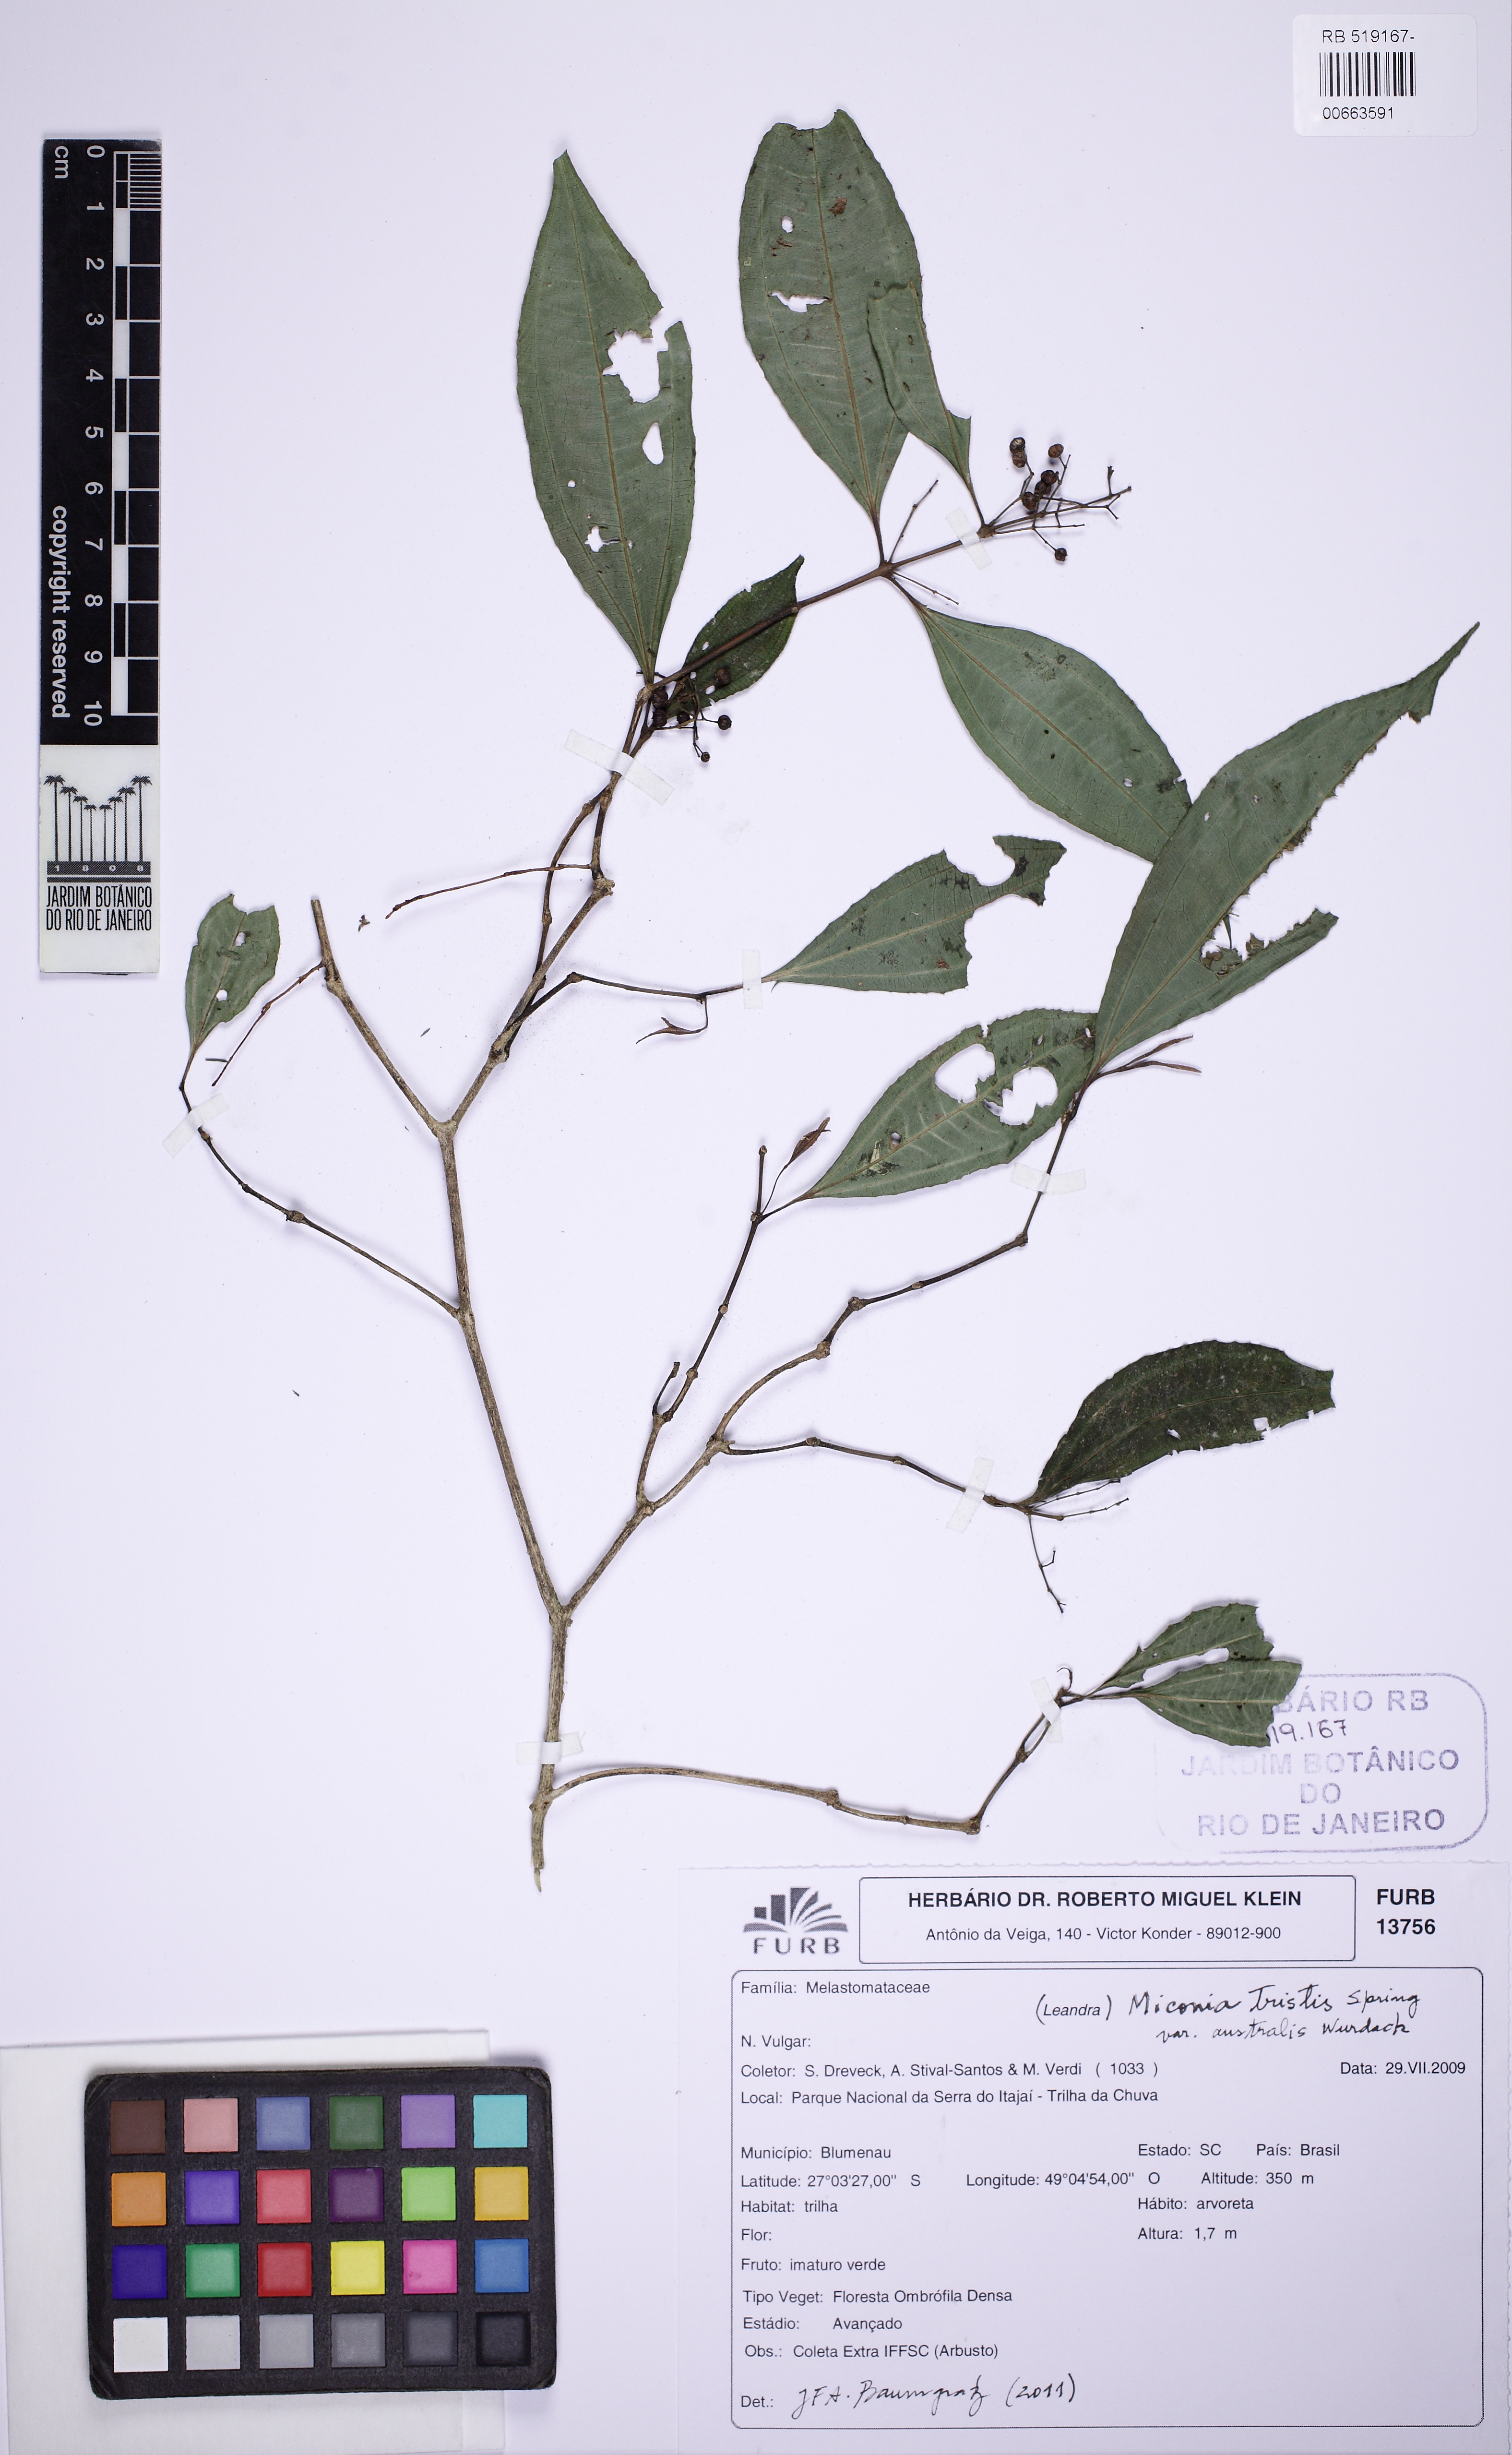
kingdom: Plantae
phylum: Tracheophyta
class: Magnoliopsida
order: Myrtales
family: Melastomataceae
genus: Miconia
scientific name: Miconia tristis
